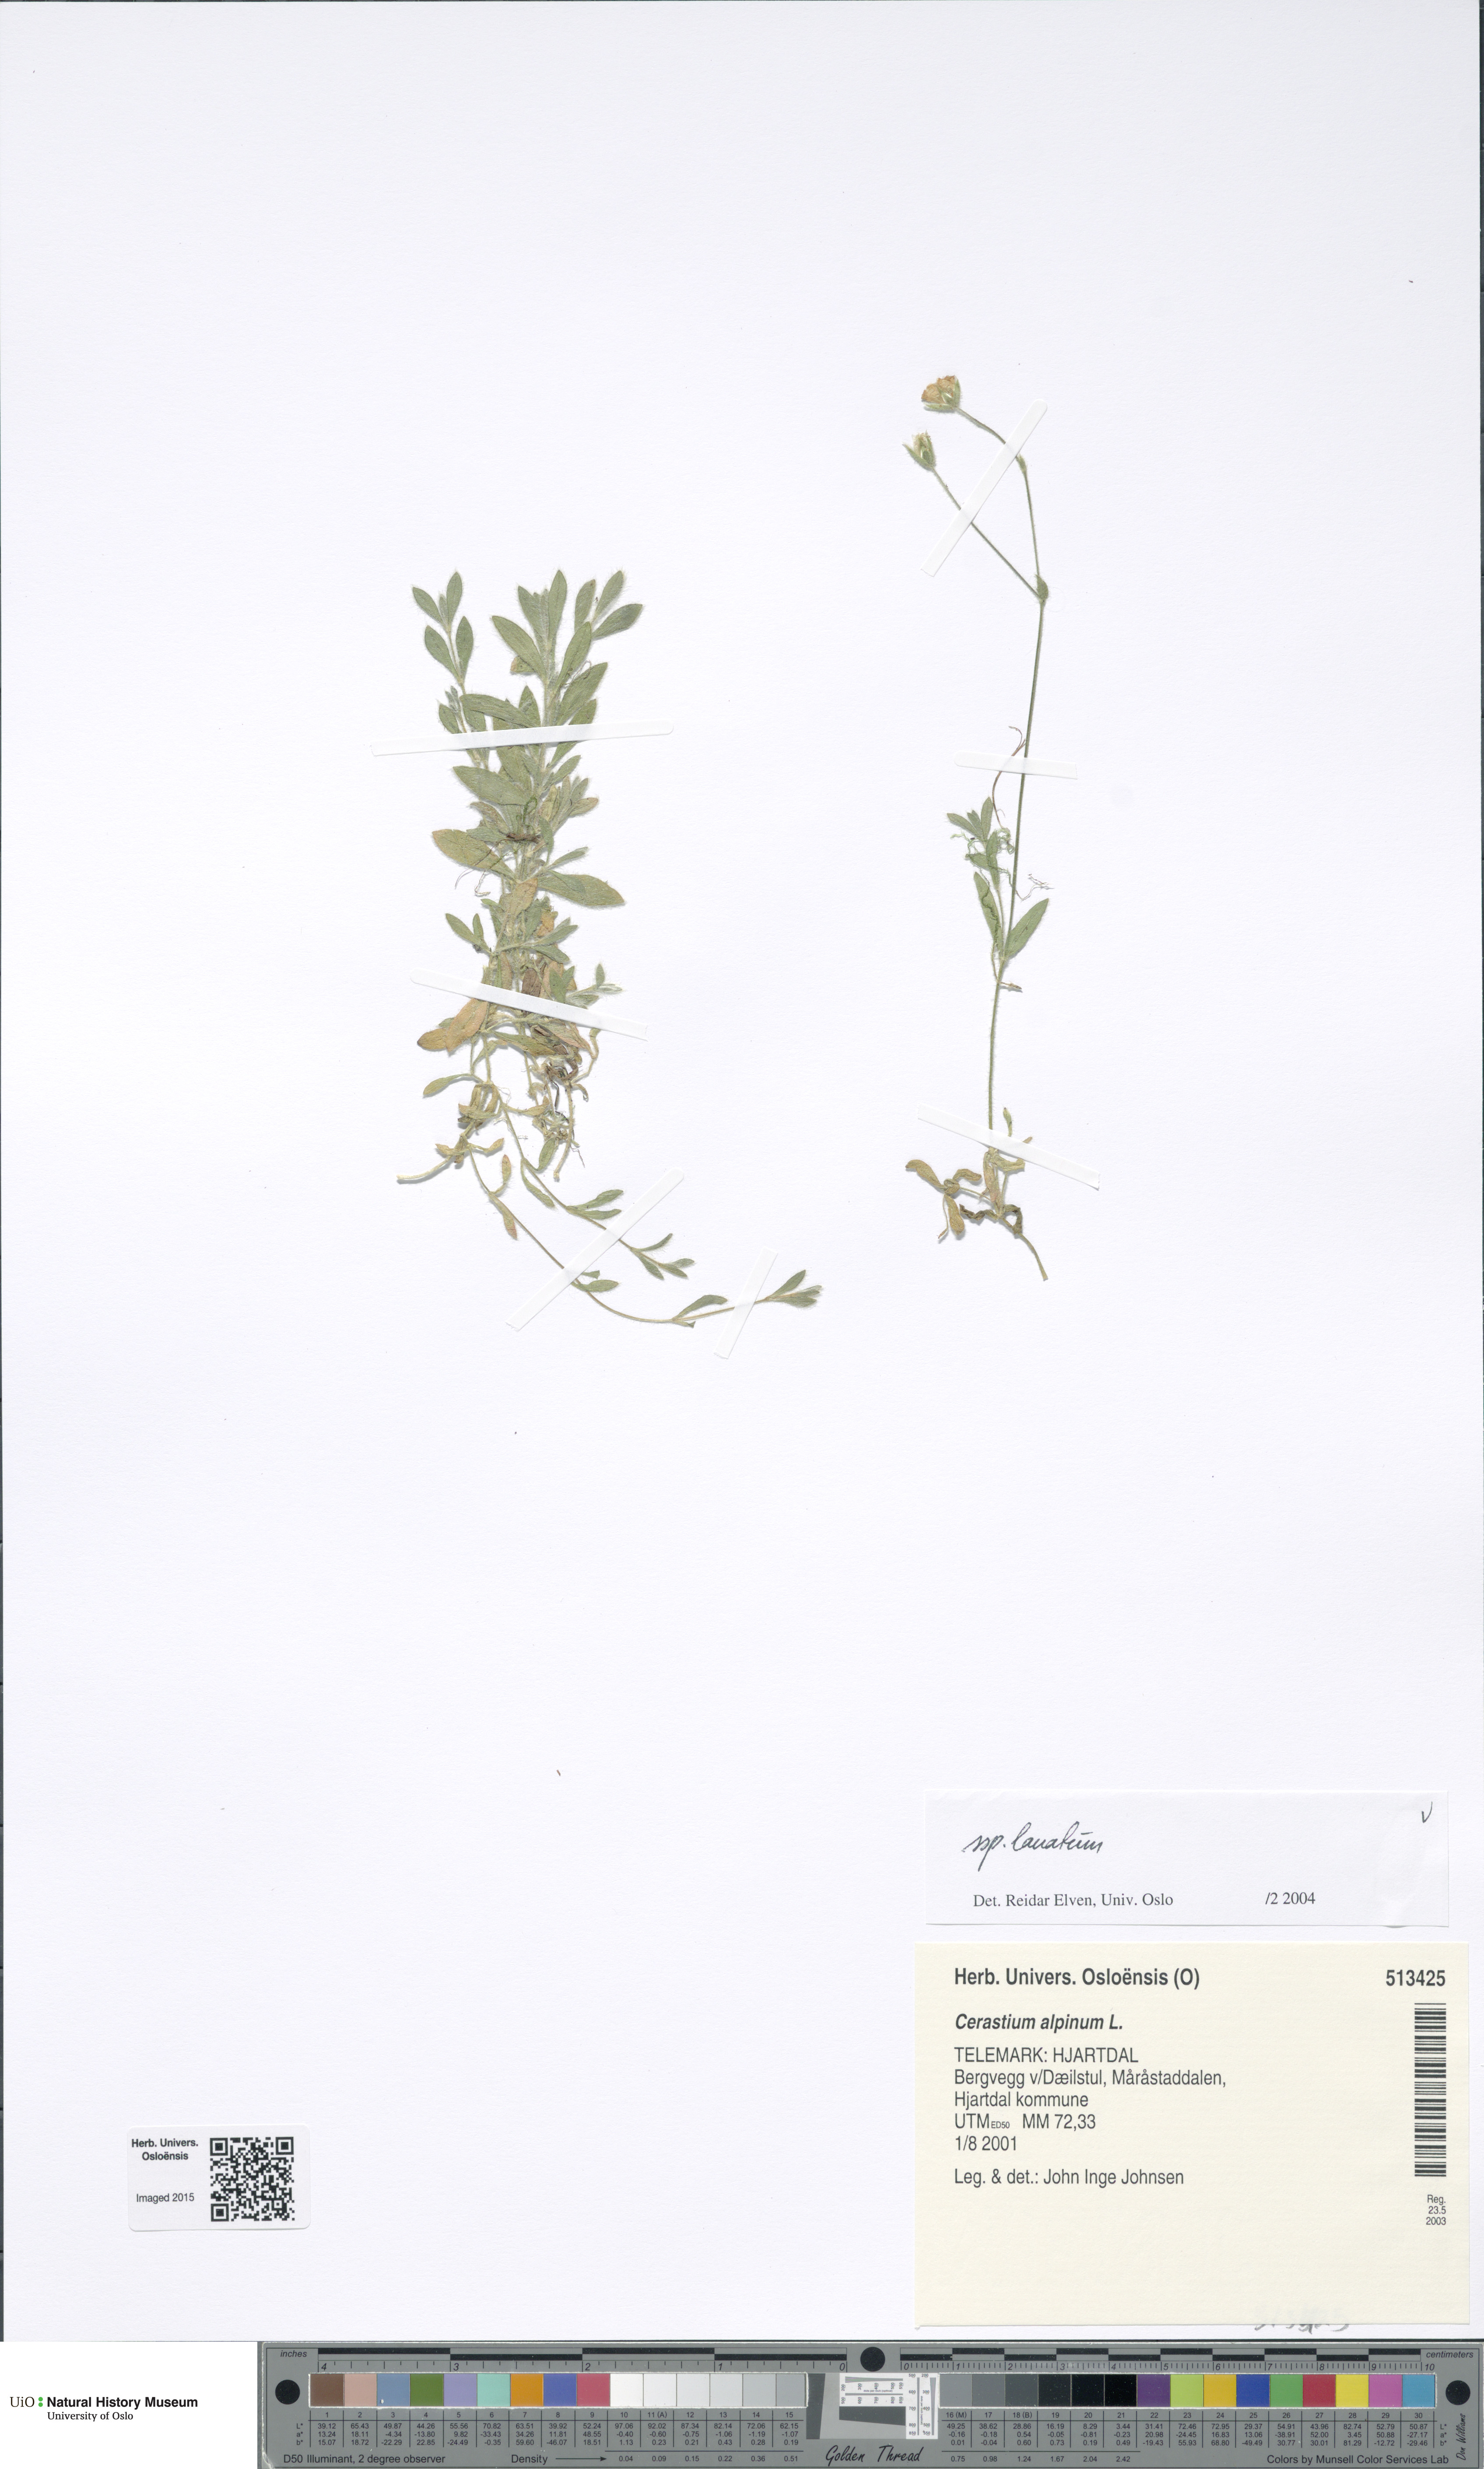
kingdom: Plantae
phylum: Tracheophyta
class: Magnoliopsida
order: Caryophyllales
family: Caryophyllaceae
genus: Cerastium
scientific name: Cerastium alpinum
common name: Alpine mouse-ear
